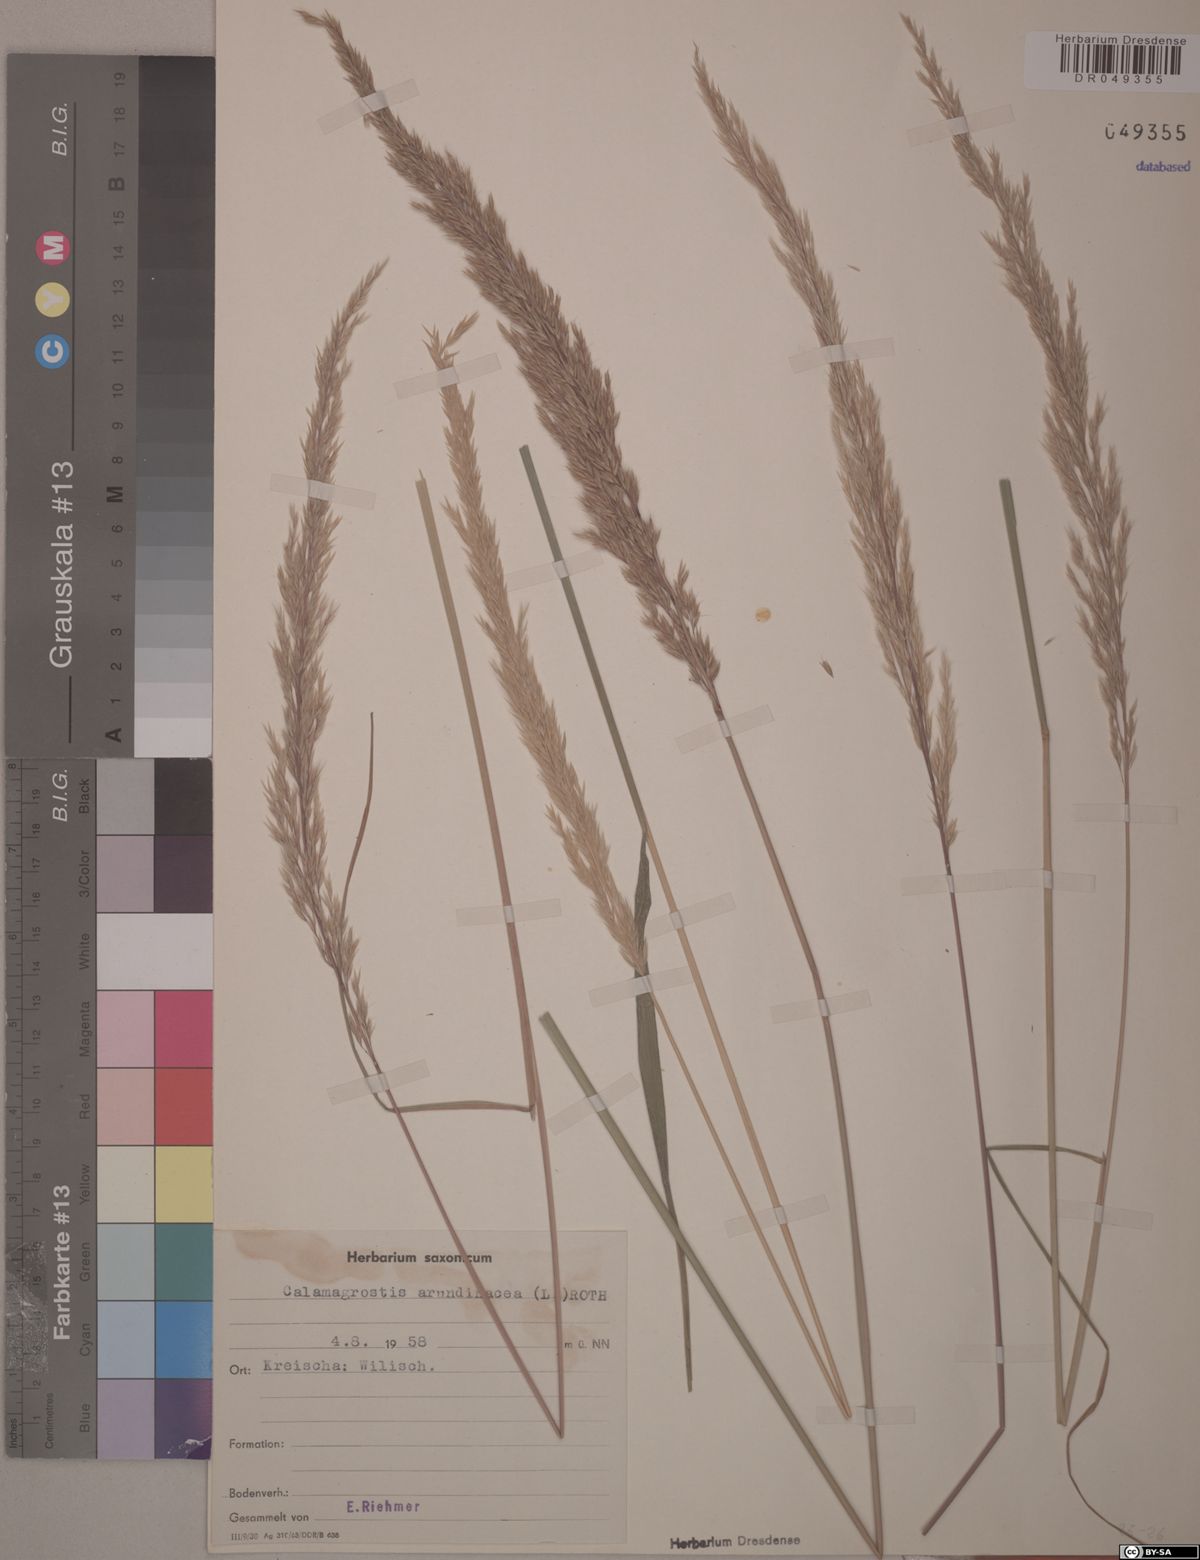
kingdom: Plantae
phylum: Tracheophyta
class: Liliopsida
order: Poales
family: Poaceae
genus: Calamagrostis
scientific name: Calamagrostis arundinacea
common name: Metskastik
